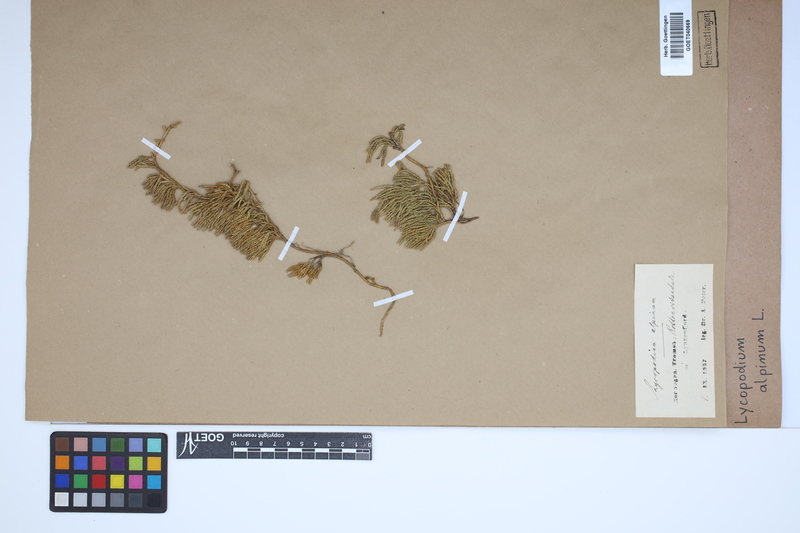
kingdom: Plantae
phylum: Tracheophyta
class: Lycopodiopsida
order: Lycopodiales
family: Lycopodiaceae
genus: Diphasiastrum
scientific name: Diphasiastrum alpinum
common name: Alpine clubmoss
